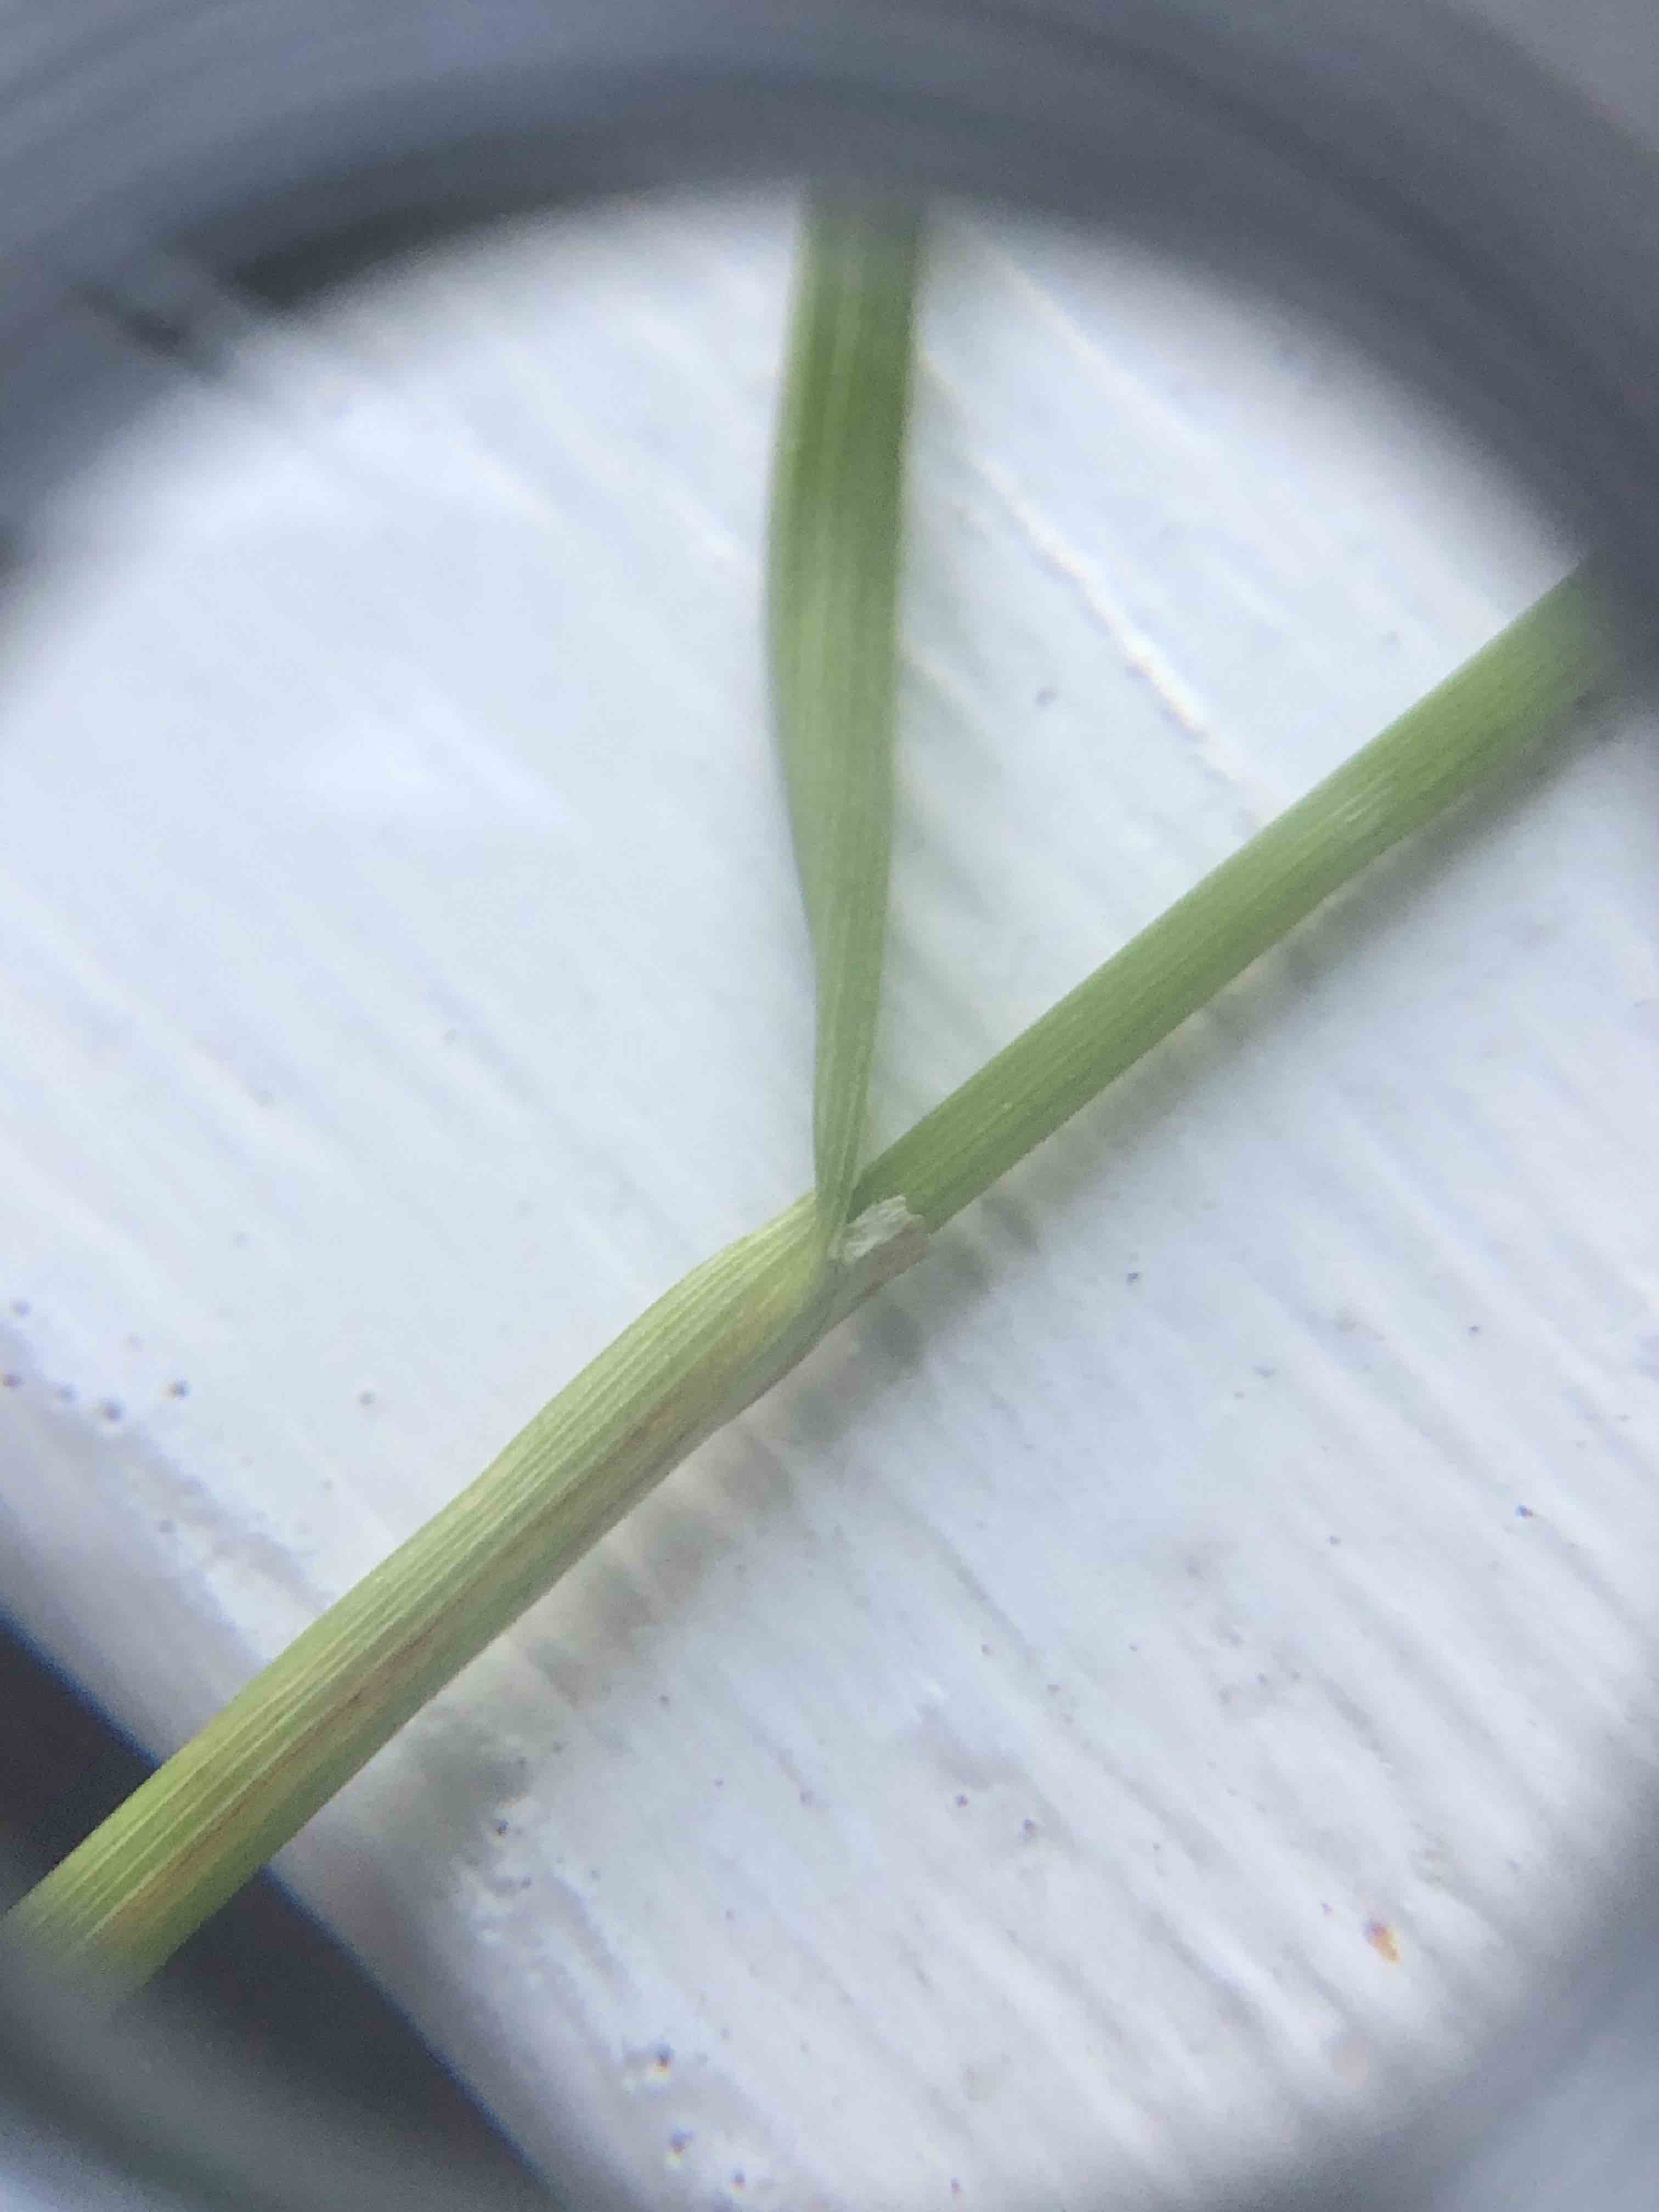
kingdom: Plantae
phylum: Tracheophyta
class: Liliopsida
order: Poales
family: Cyperaceae
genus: Carex
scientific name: Carex distans
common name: Fjernakset star
